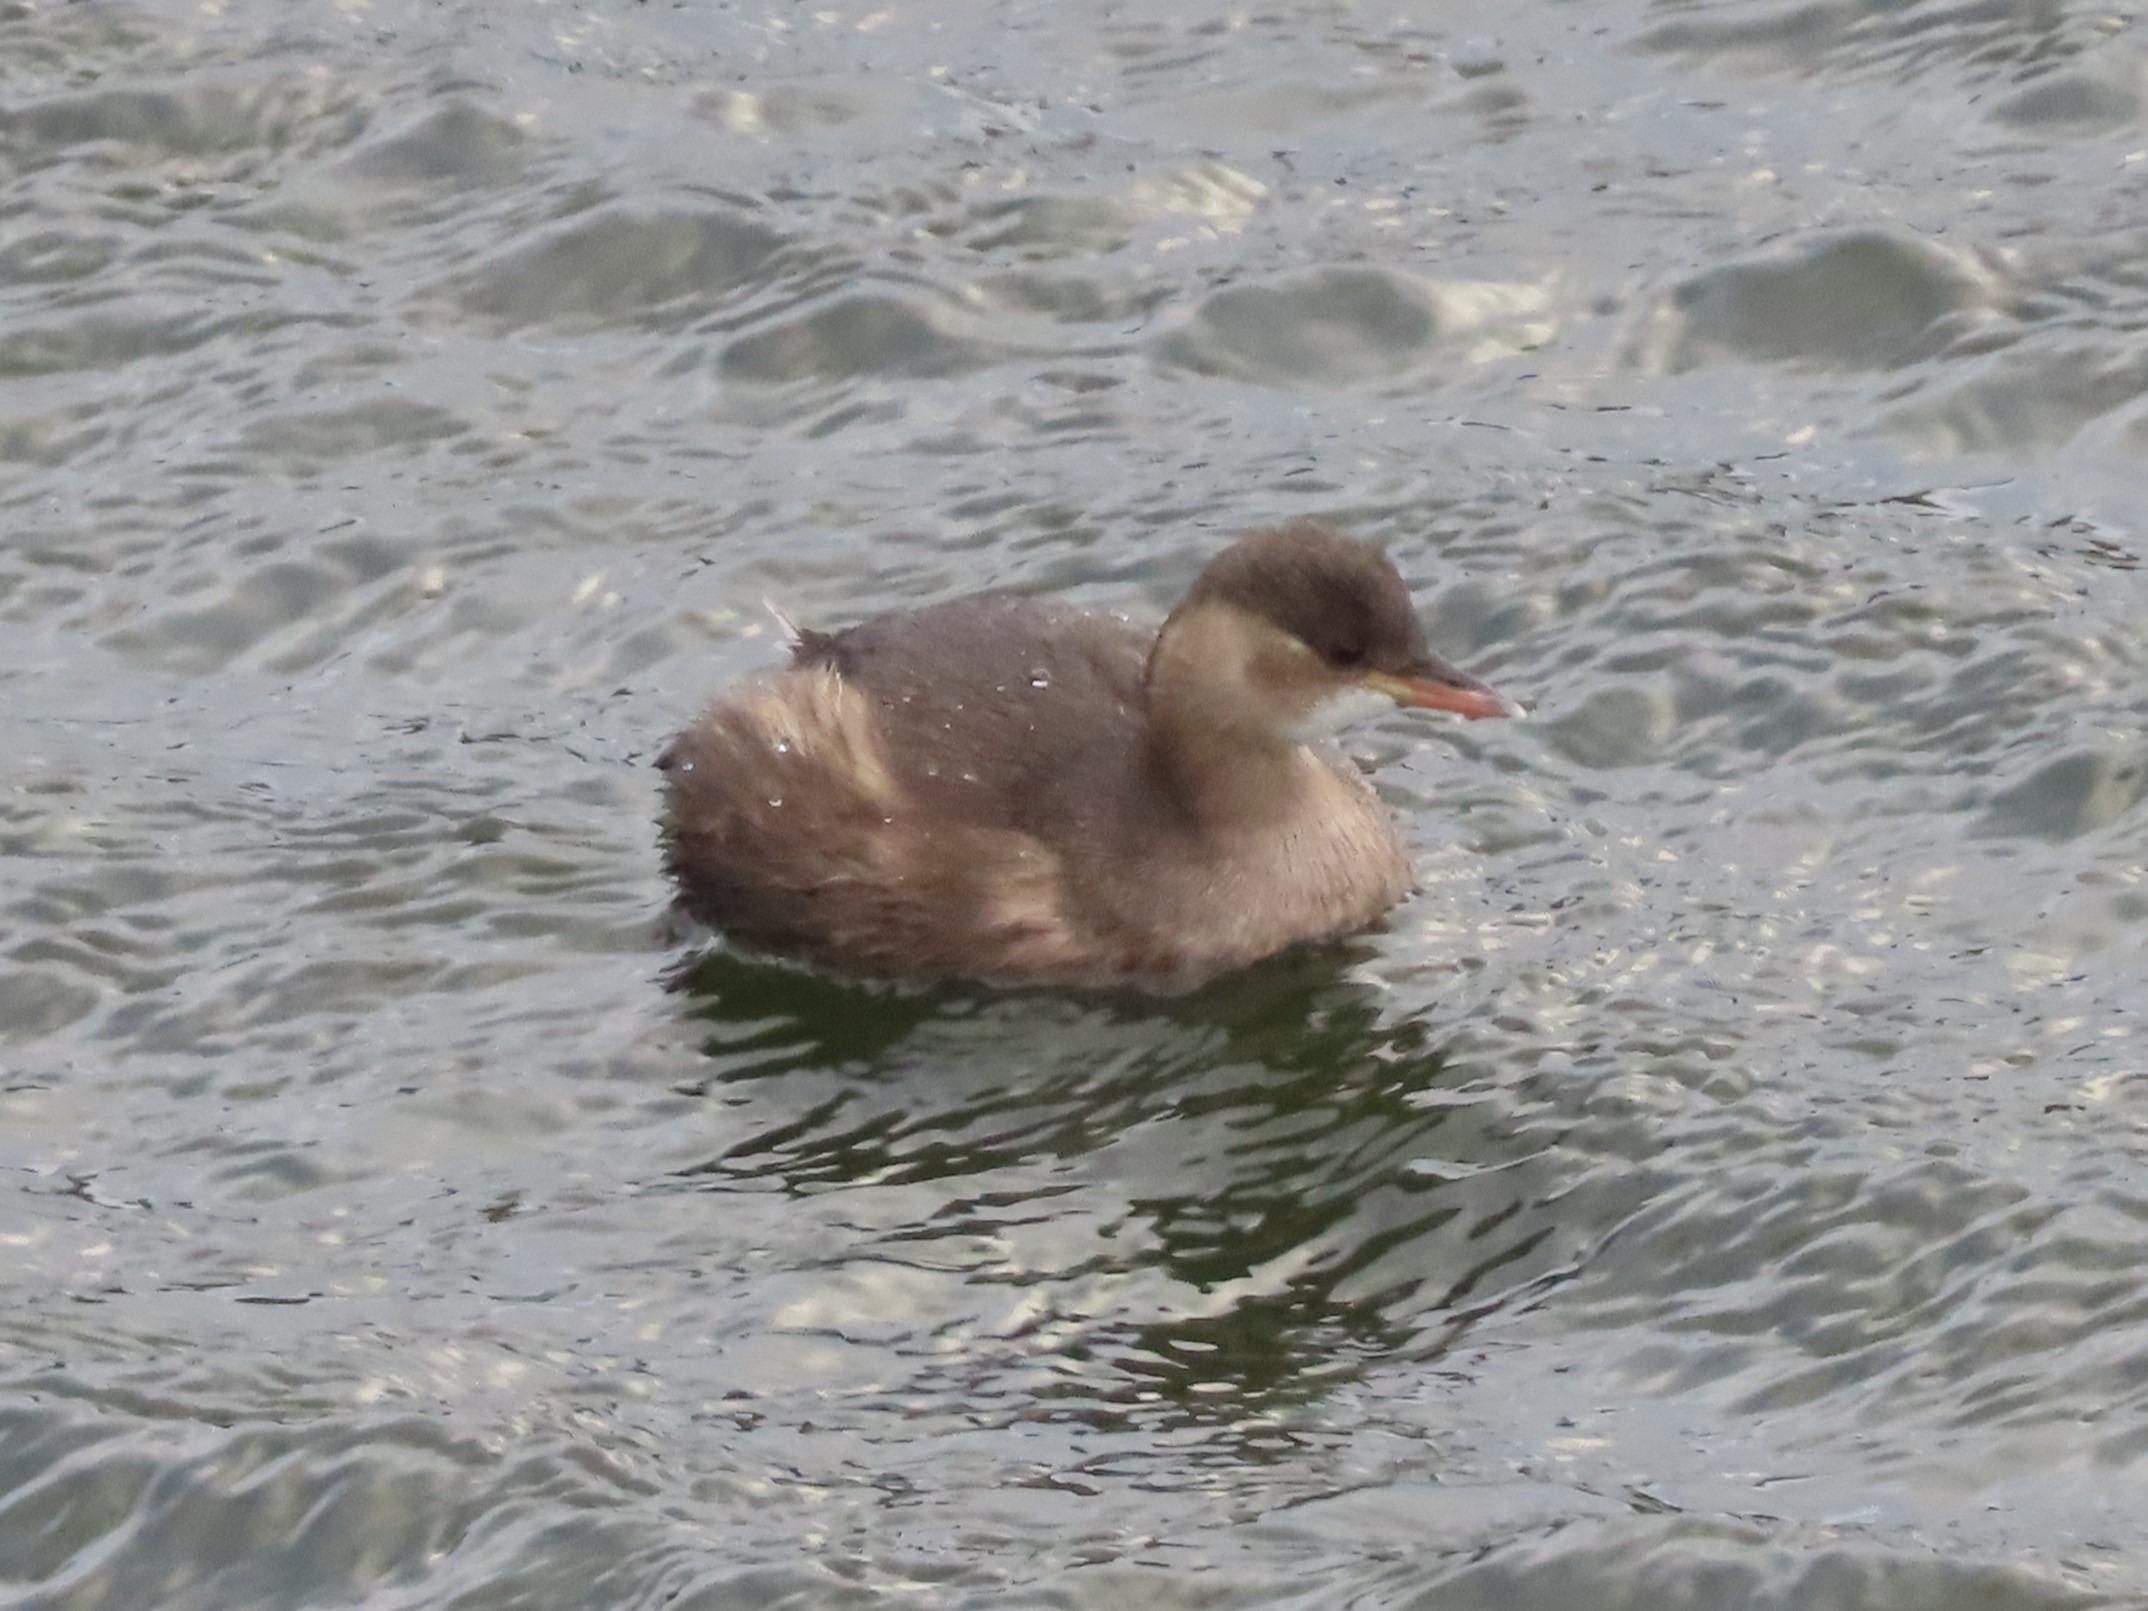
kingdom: Animalia
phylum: Chordata
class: Aves
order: Podicipediformes
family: Podicipedidae
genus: Tachybaptus
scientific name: Tachybaptus ruficollis
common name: Lille lappedykker
